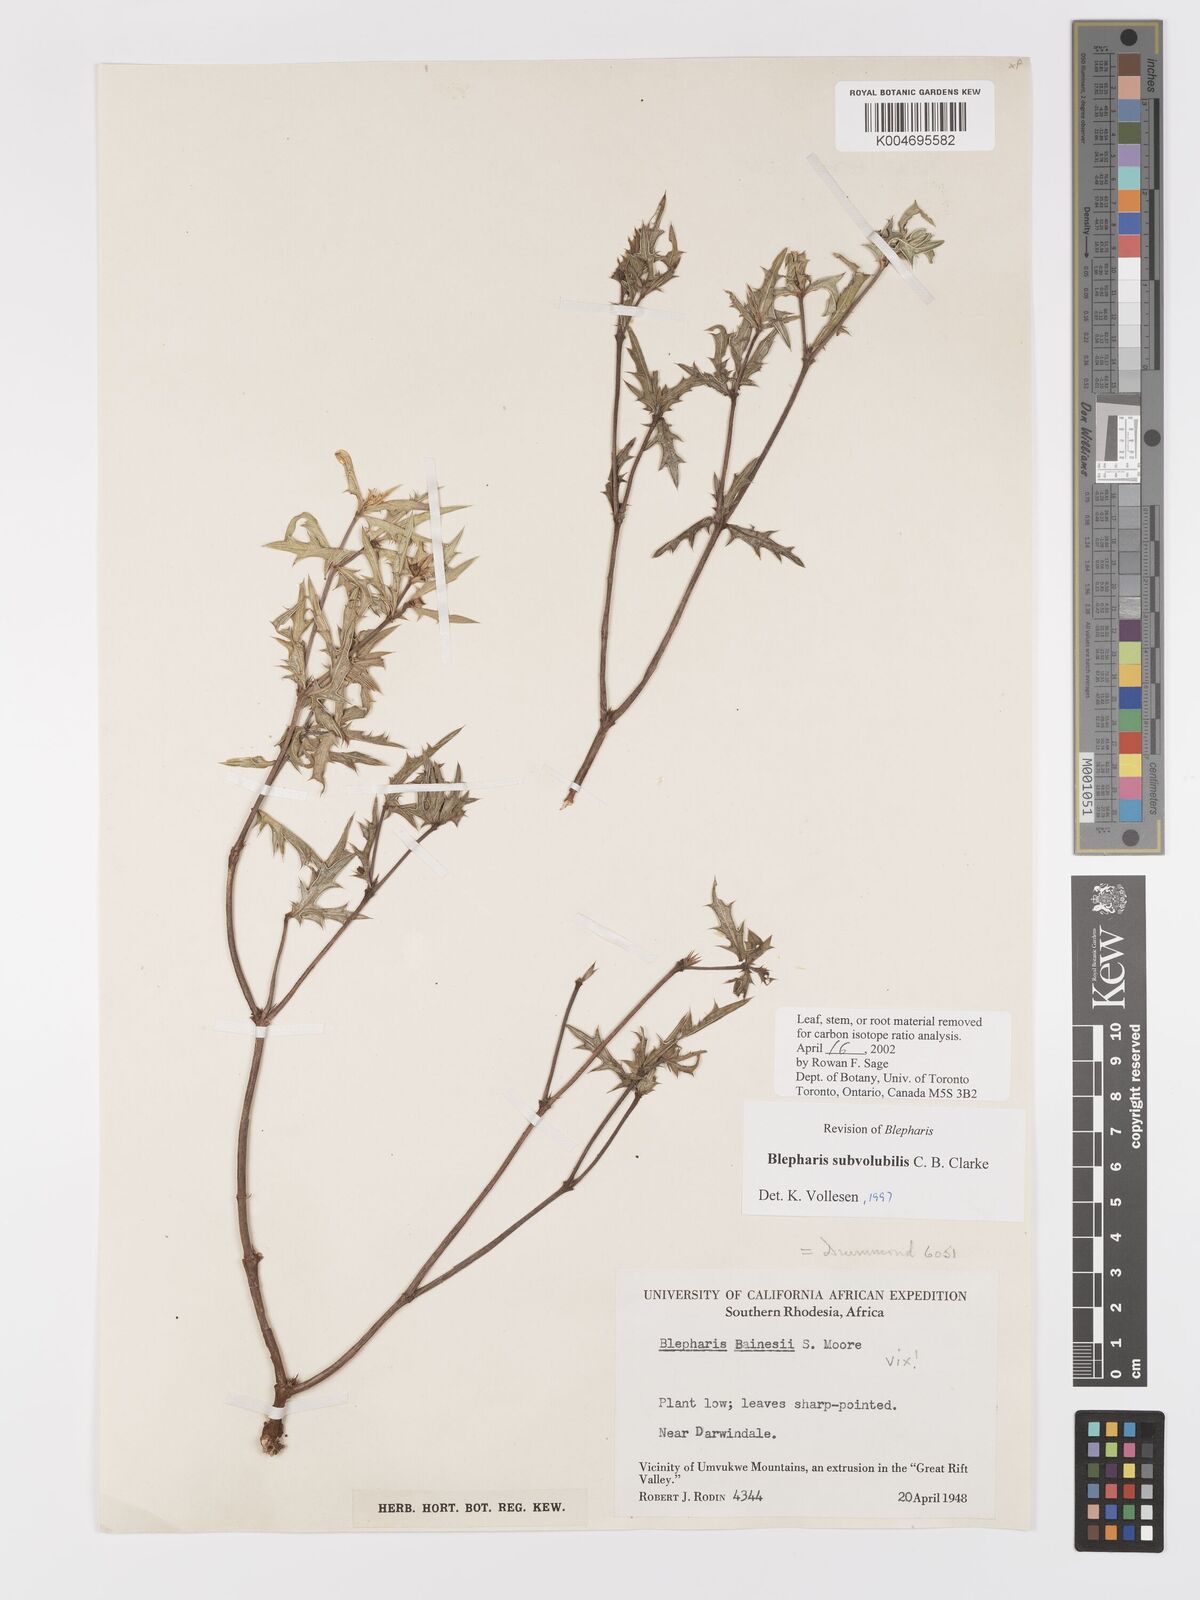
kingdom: Plantae
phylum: Tracheophyta
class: Magnoliopsida
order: Lamiales
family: Acanthaceae
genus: Blepharis
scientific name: Blepharis subvolubilis
